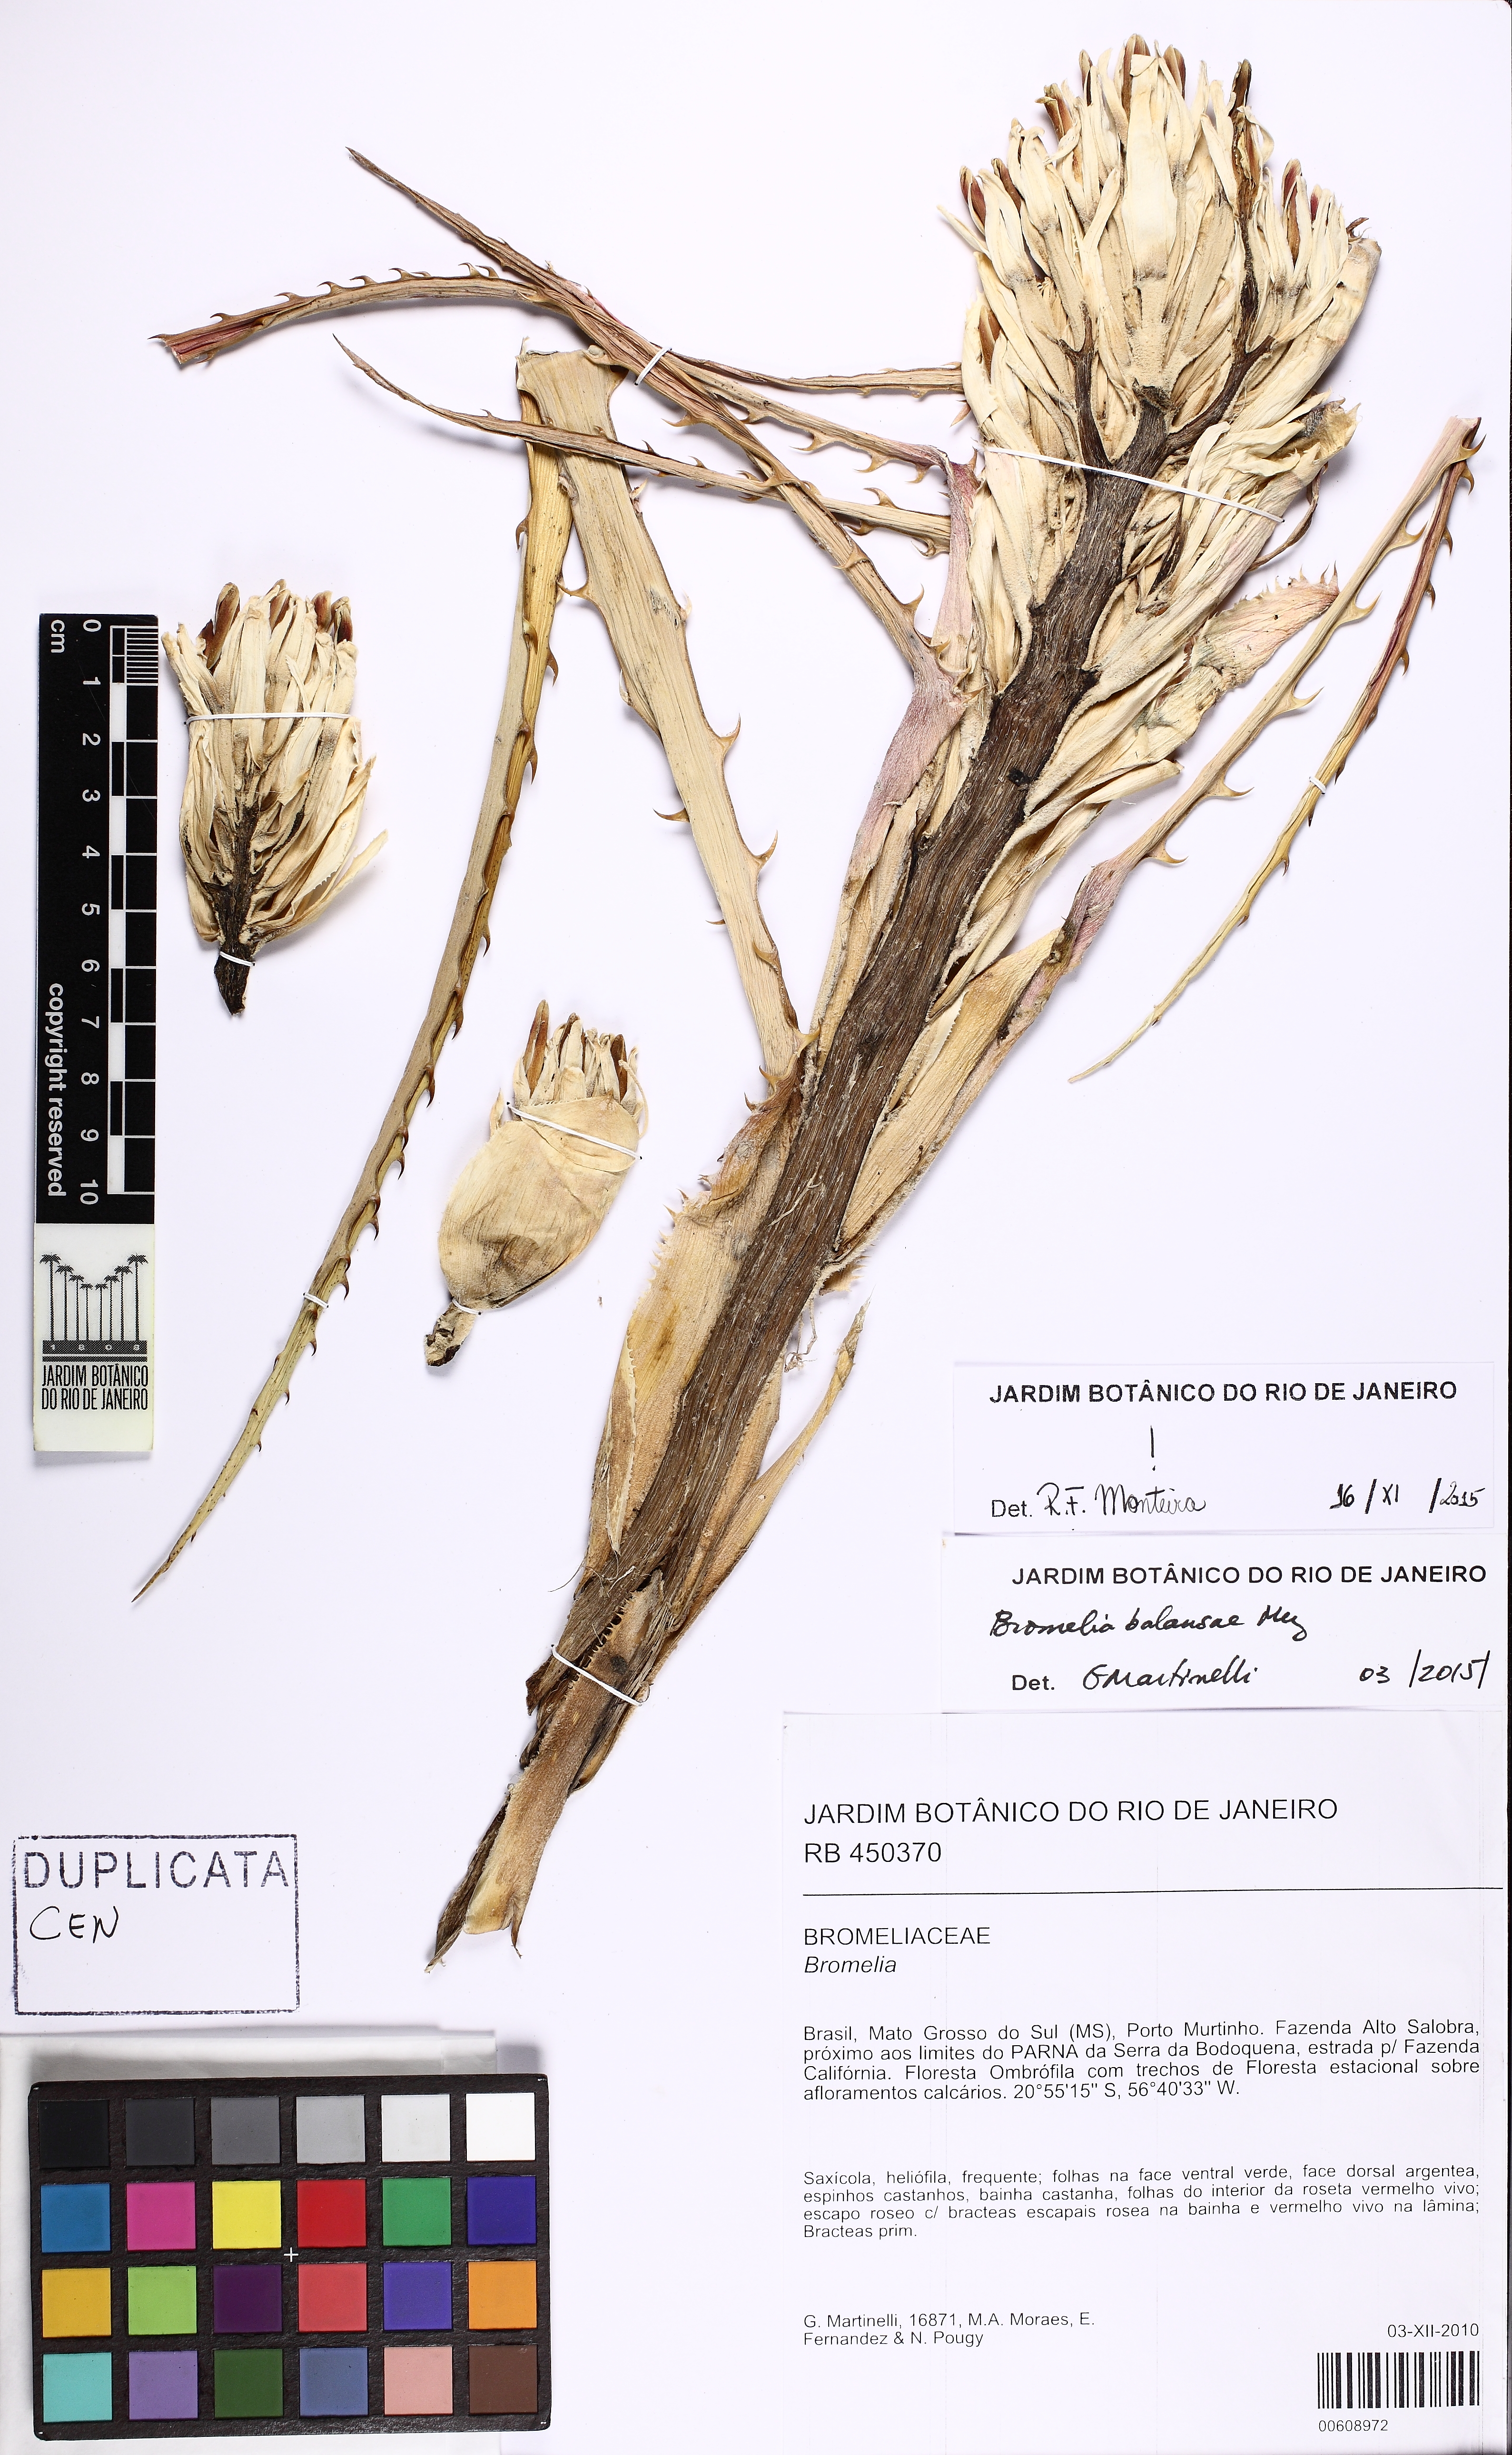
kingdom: Plantae
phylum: Tracheophyta
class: Liliopsida
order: Poales
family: Bromeliaceae
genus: Bromelia
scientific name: Bromelia balansae
